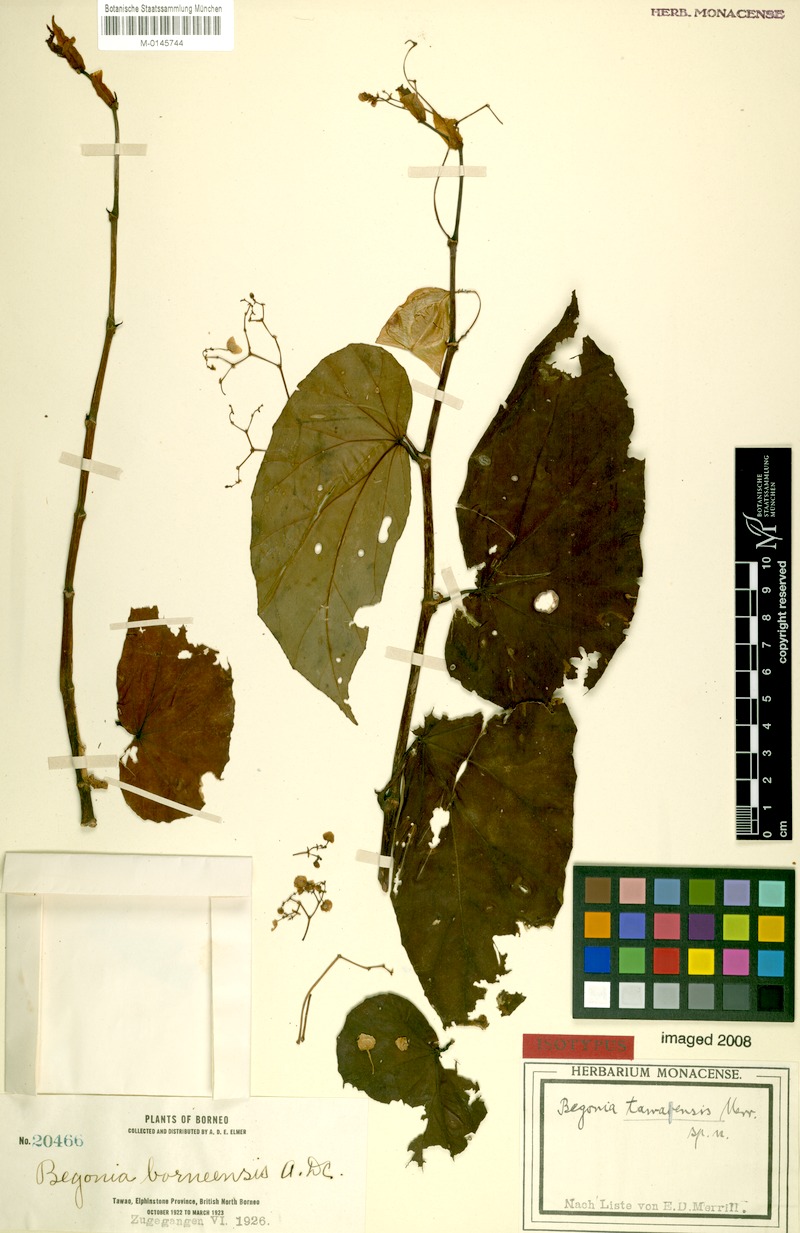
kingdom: Plantae
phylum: Tracheophyta
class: Magnoliopsida
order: Cucurbitales
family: Begoniaceae
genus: Begonia
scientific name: Begonia tawaensis
